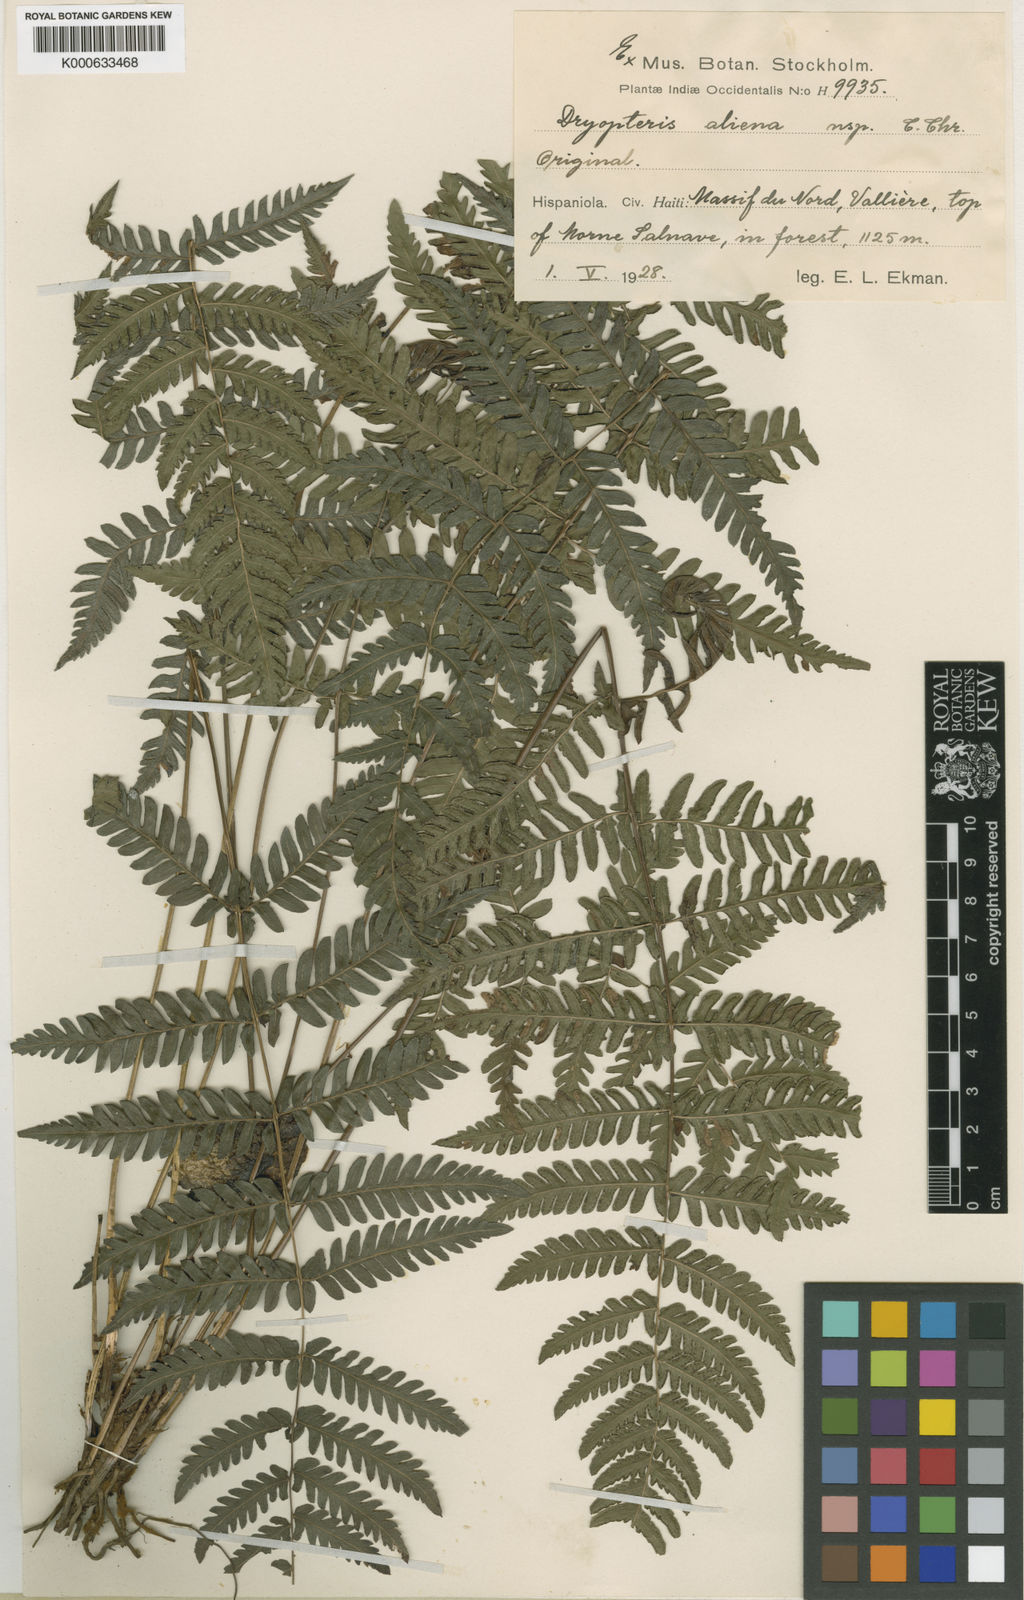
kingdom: Plantae
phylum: Tracheophyta
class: Polypodiopsida
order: Polypodiales
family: Thelypteridaceae
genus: Amauropelta
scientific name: Amauropelta aliena
